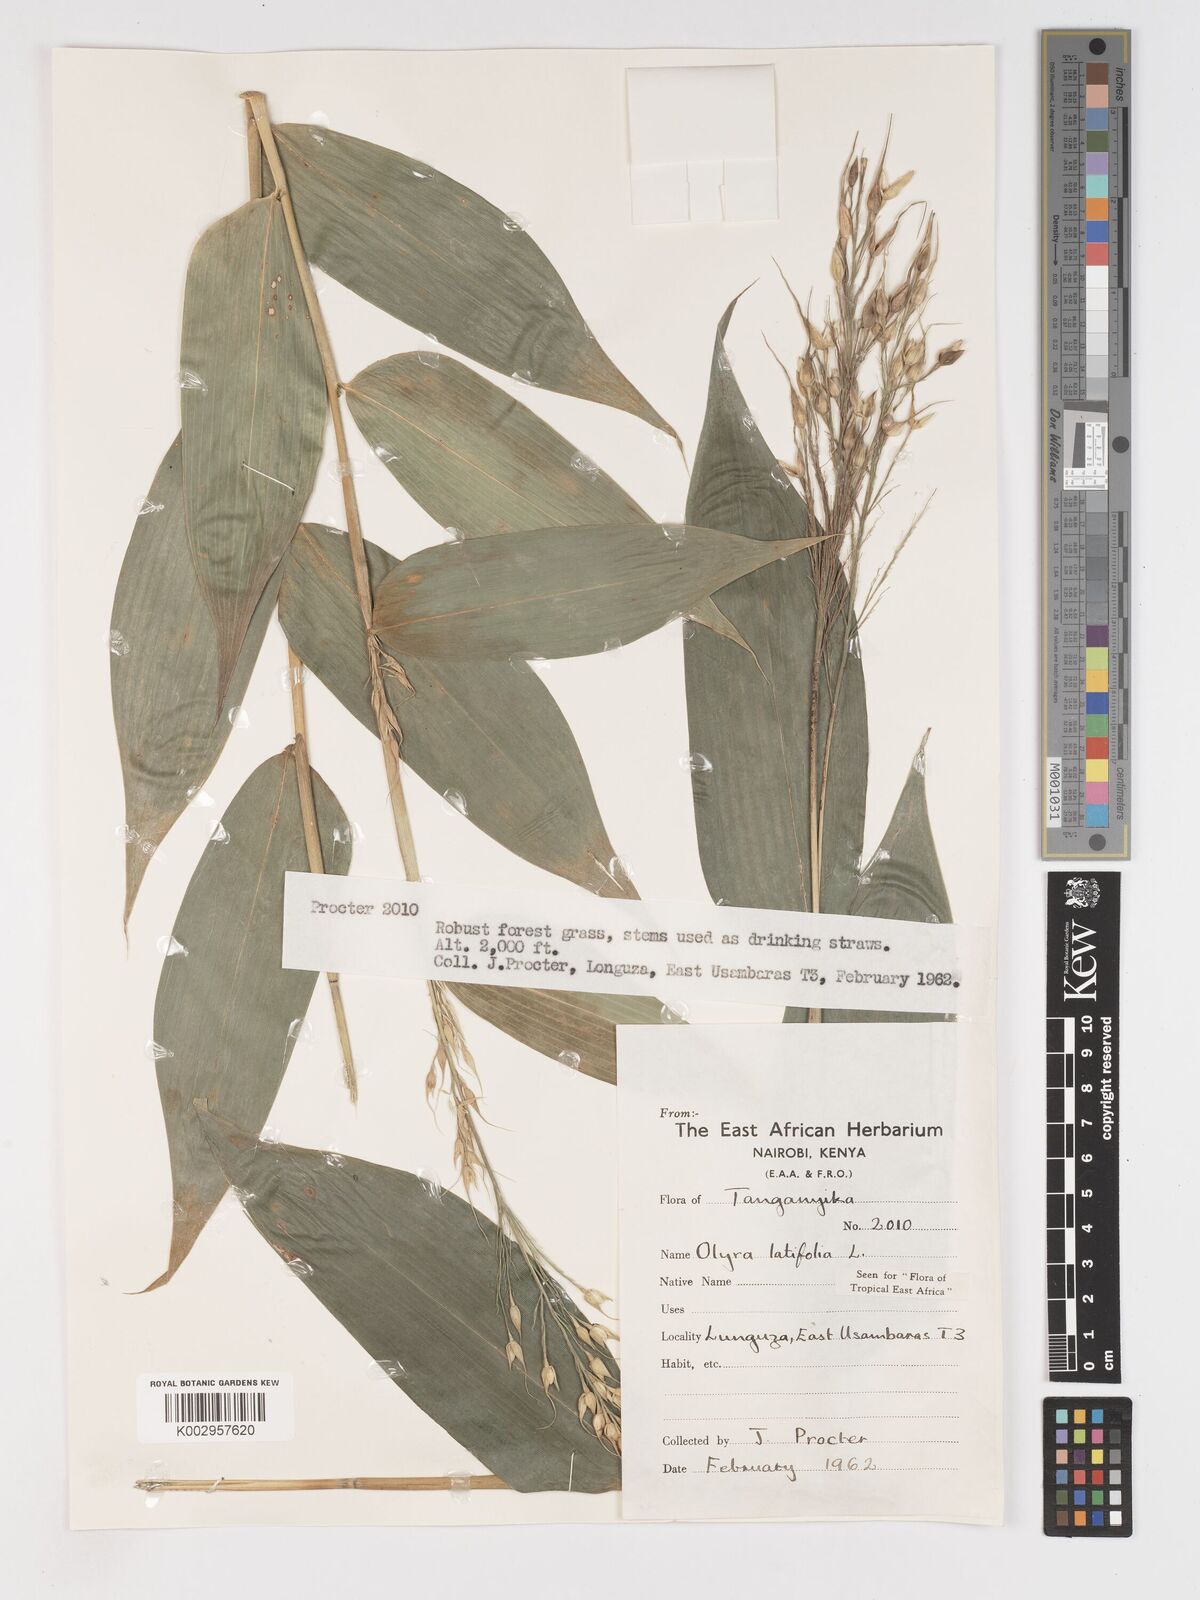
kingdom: Plantae
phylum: Tracheophyta
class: Liliopsida
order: Poales
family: Poaceae
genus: Olyra
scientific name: Olyra latifolia
